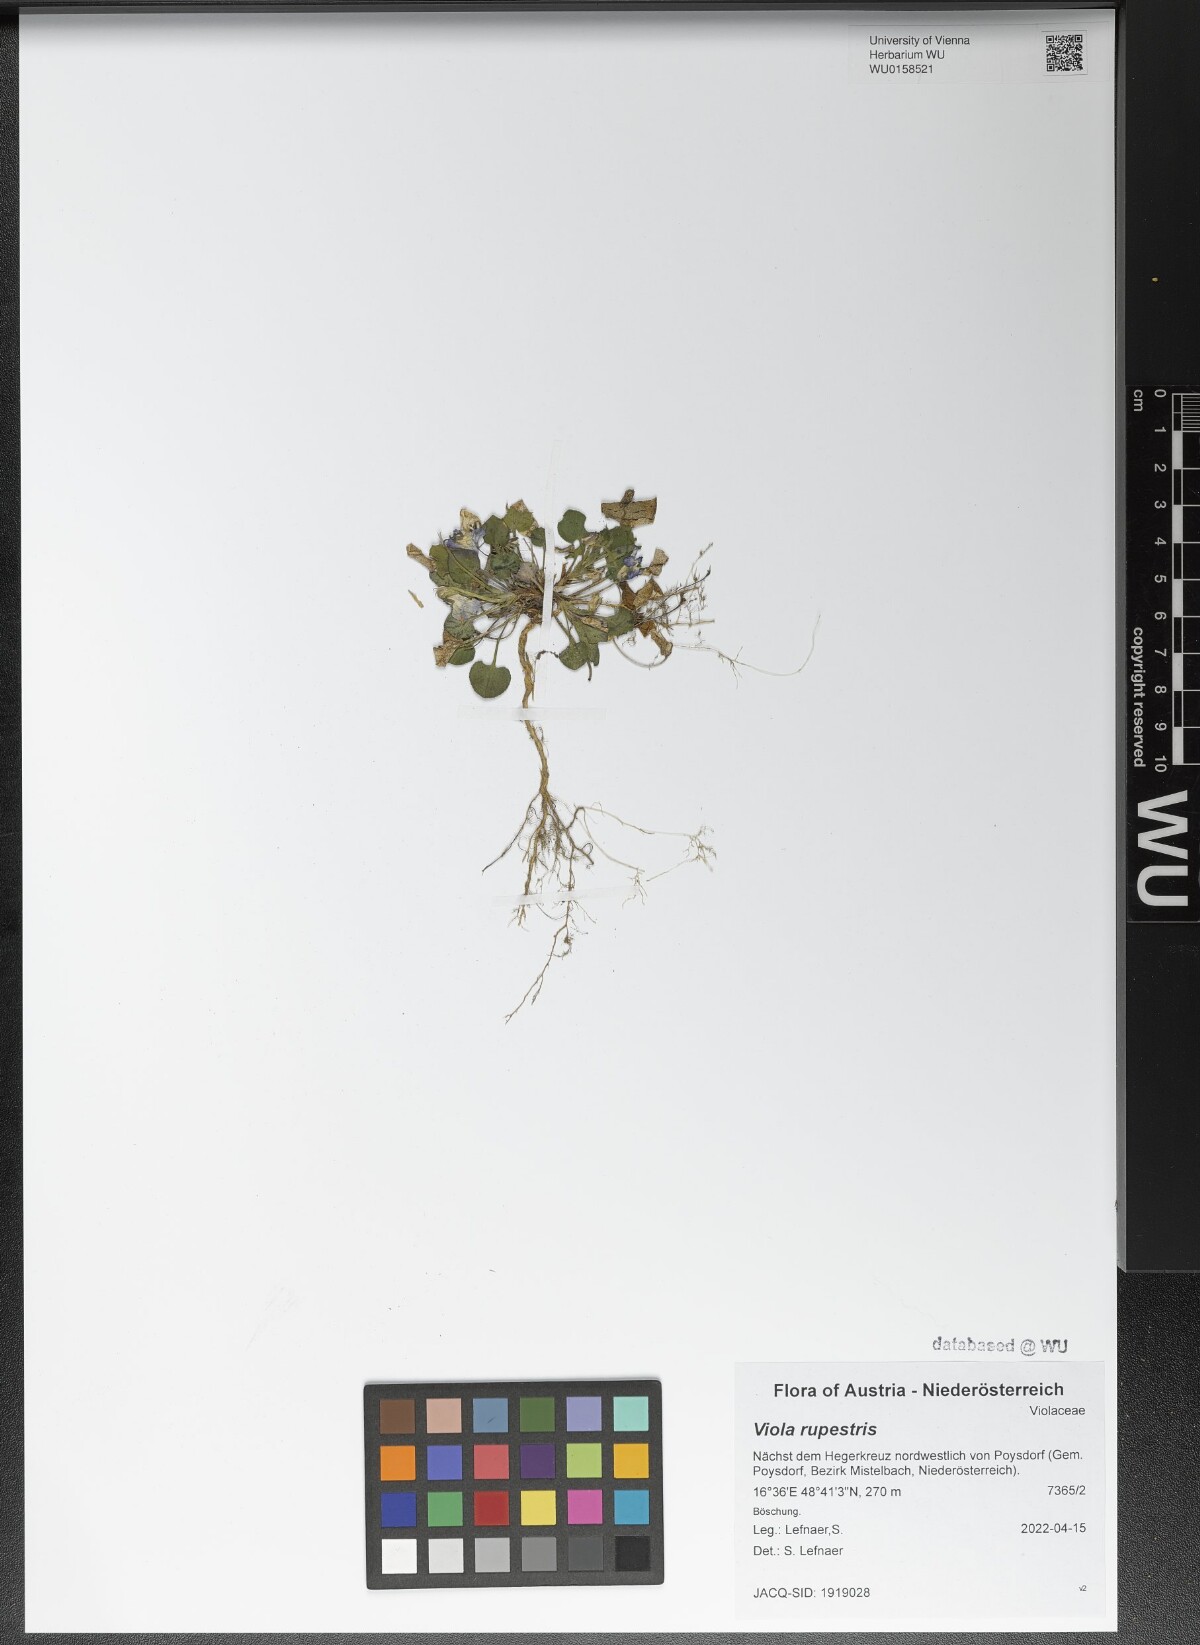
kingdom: Plantae
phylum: Tracheophyta
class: Magnoliopsida
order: Malpighiales
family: Violaceae
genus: Viola
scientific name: Viola rupestris
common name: Teesdale violet
